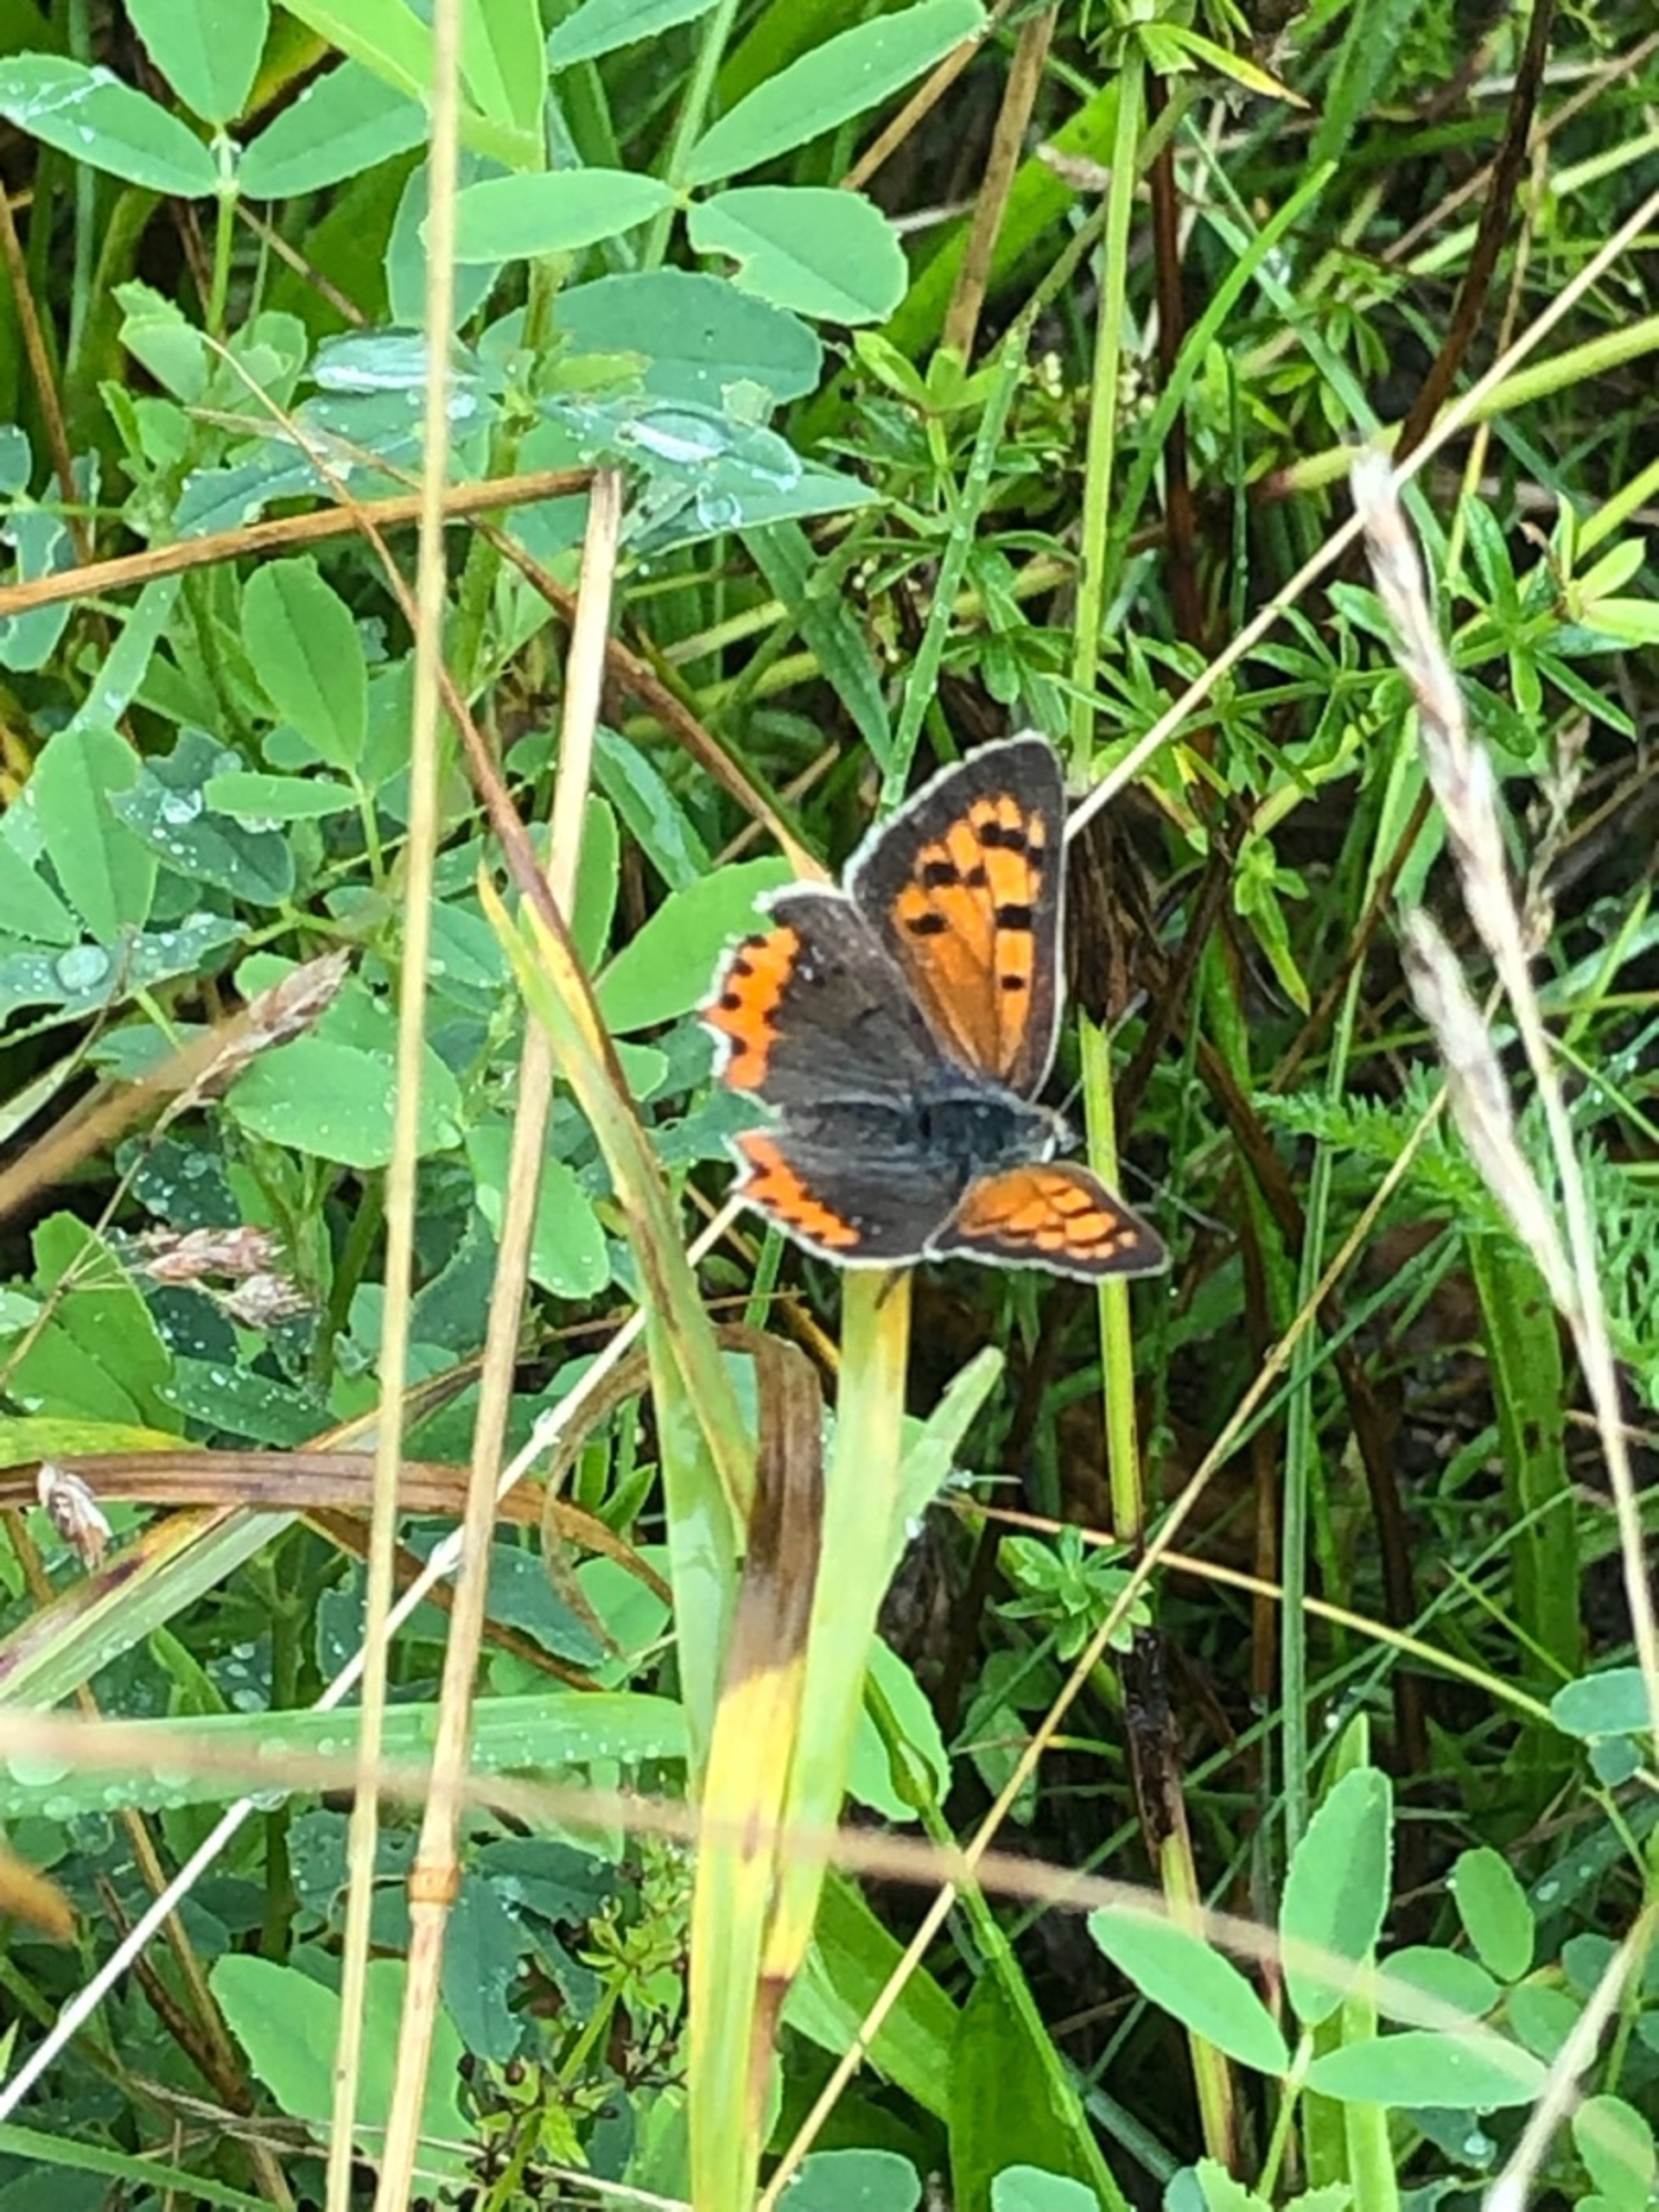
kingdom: Animalia
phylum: Arthropoda
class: Insecta
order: Lepidoptera
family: Lycaenidae
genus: Lycaena
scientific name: Lycaena phlaeas
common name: Lille ildfugl
